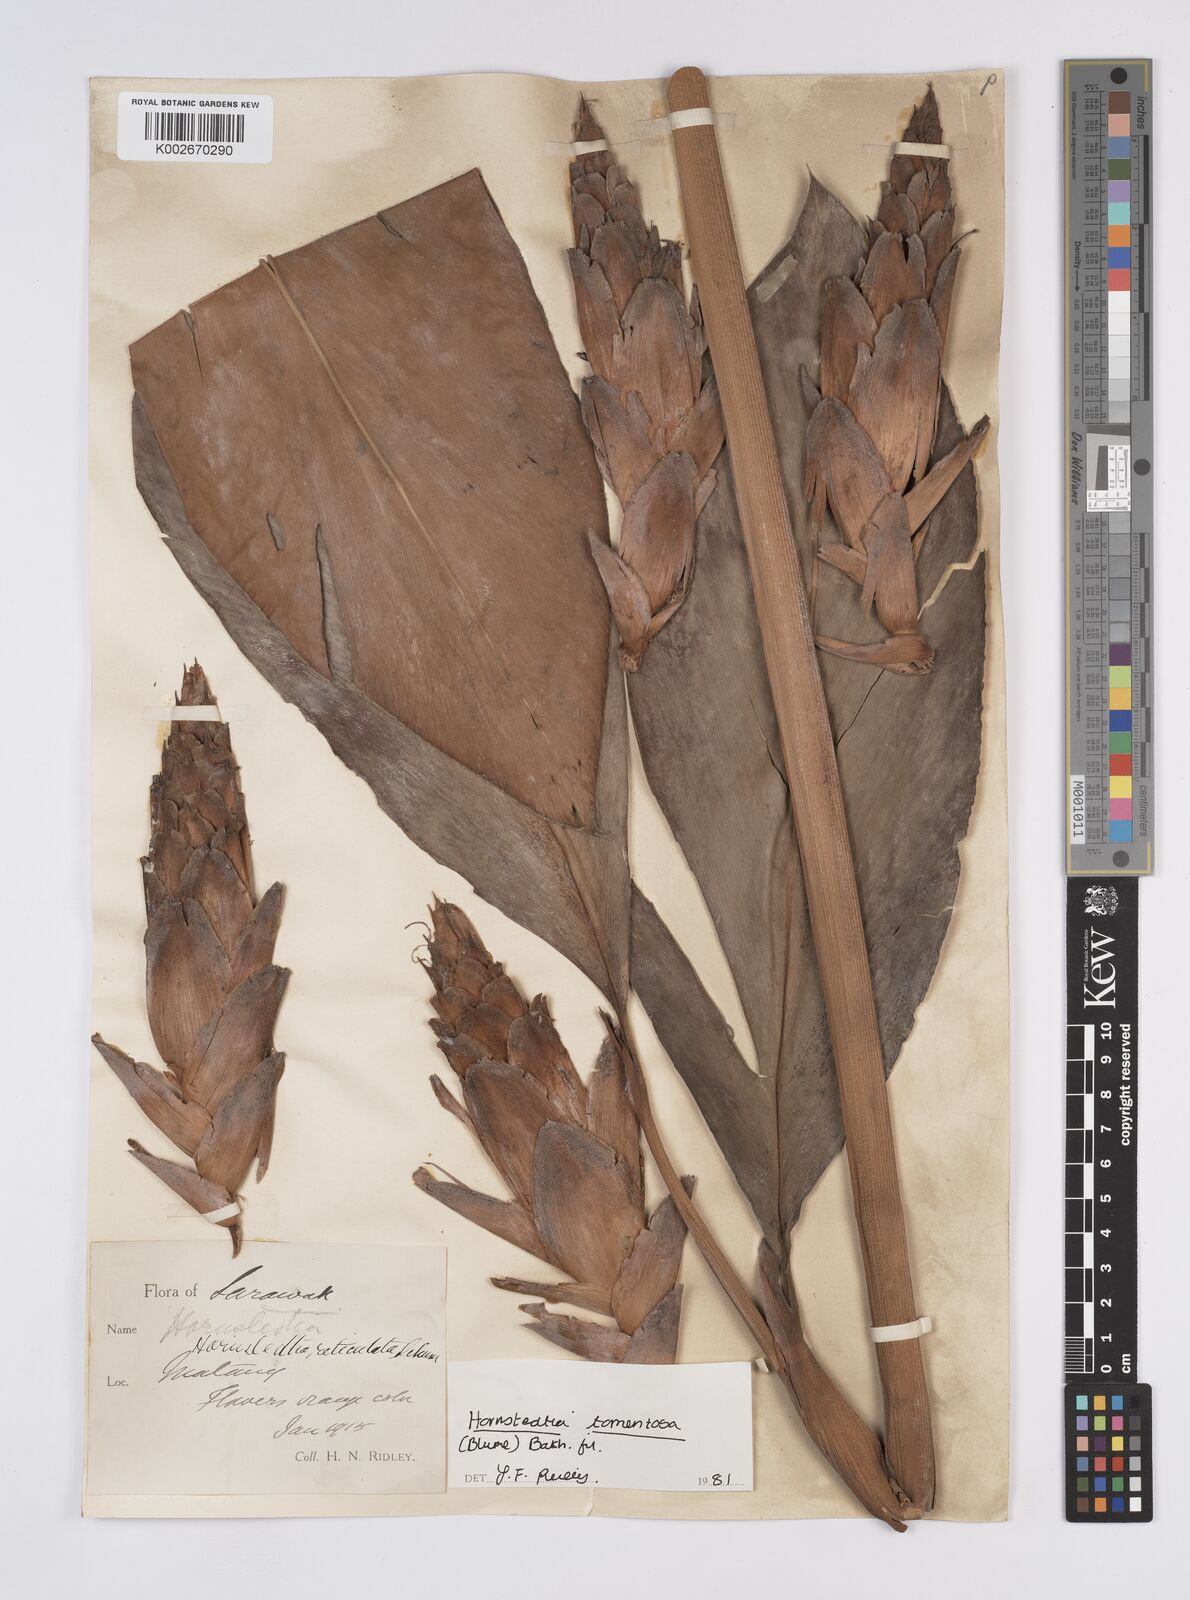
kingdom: Plantae
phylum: Tracheophyta
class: Liliopsida
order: Zingiberales
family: Zingiberaceae
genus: Hornstedtia
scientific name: Hornstedtia tomentosa
